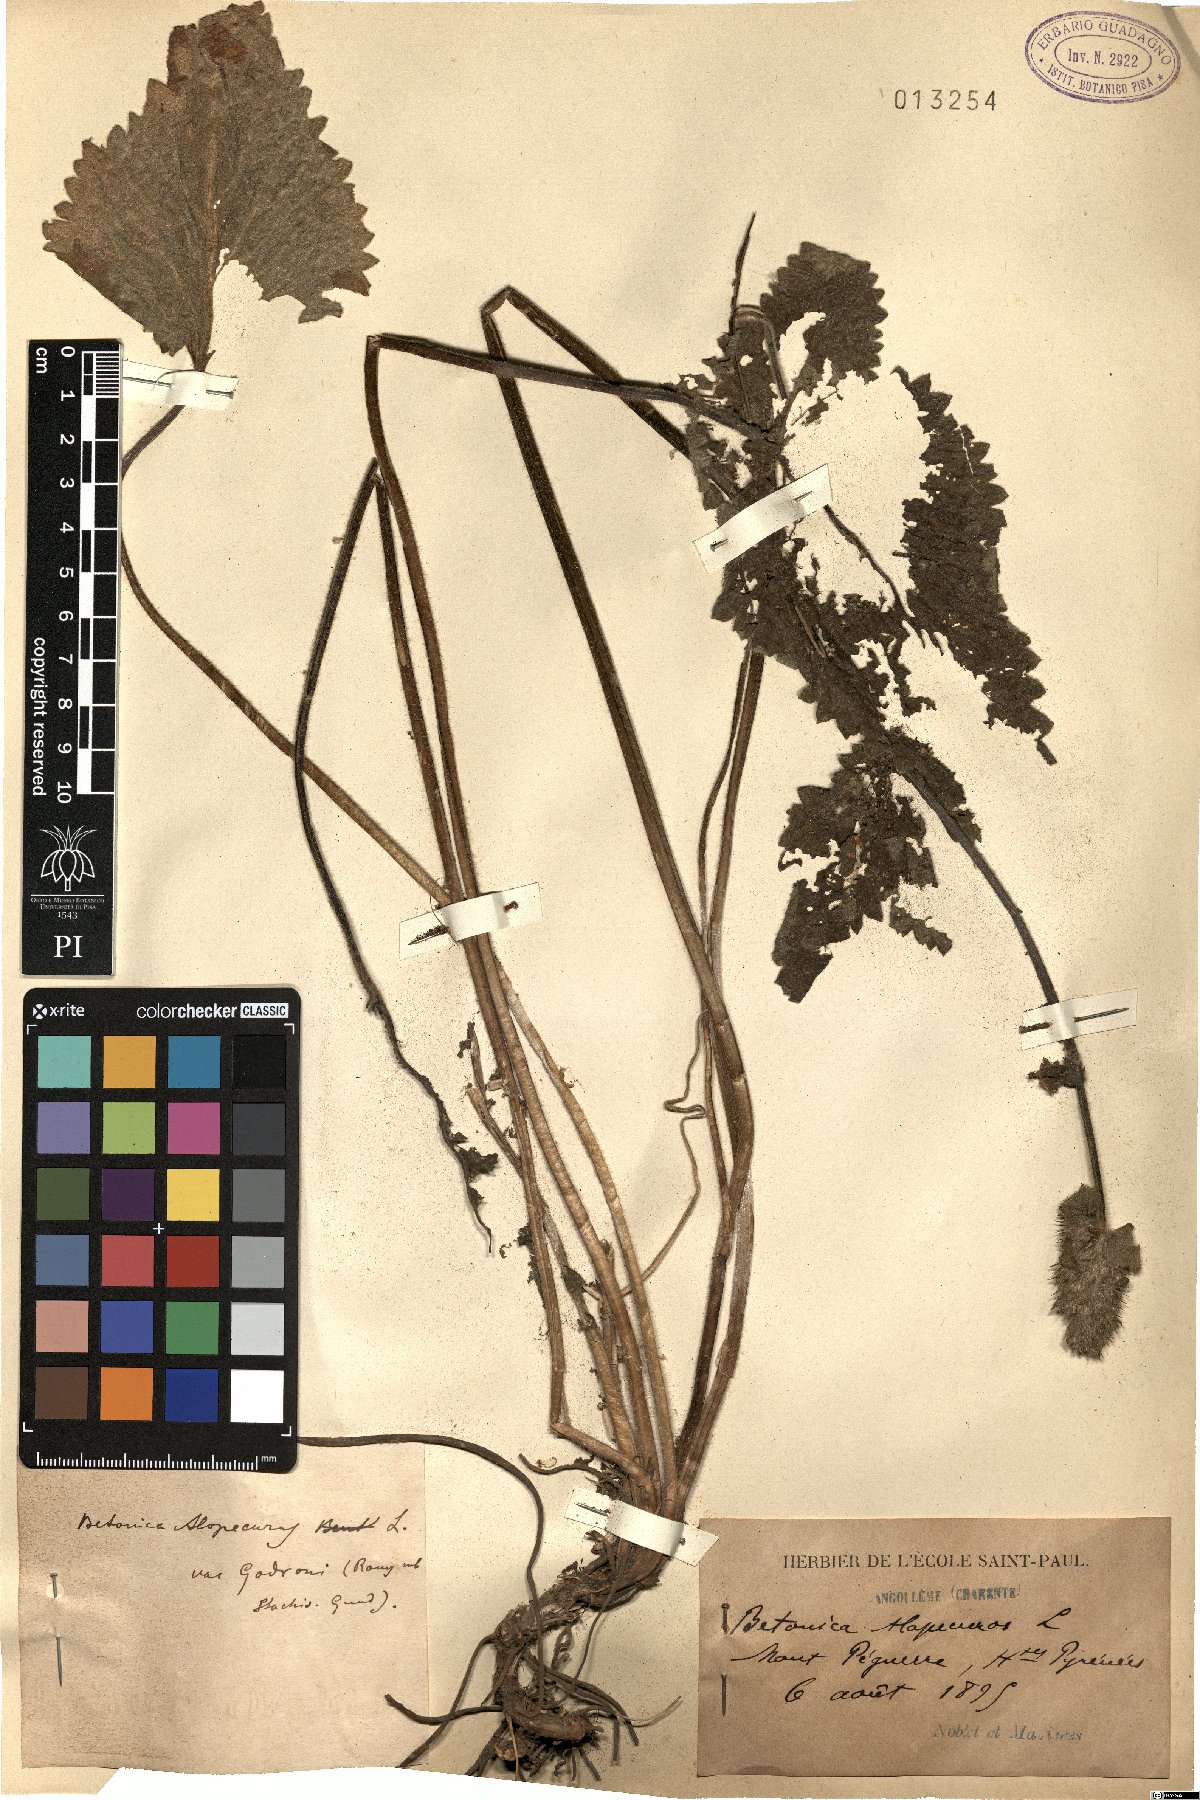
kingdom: Plantae
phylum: Tracheophyta
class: Magnoliopsida
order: Lamiales
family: Lamiaceae
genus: Betonica
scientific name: Betonica alopecuros
